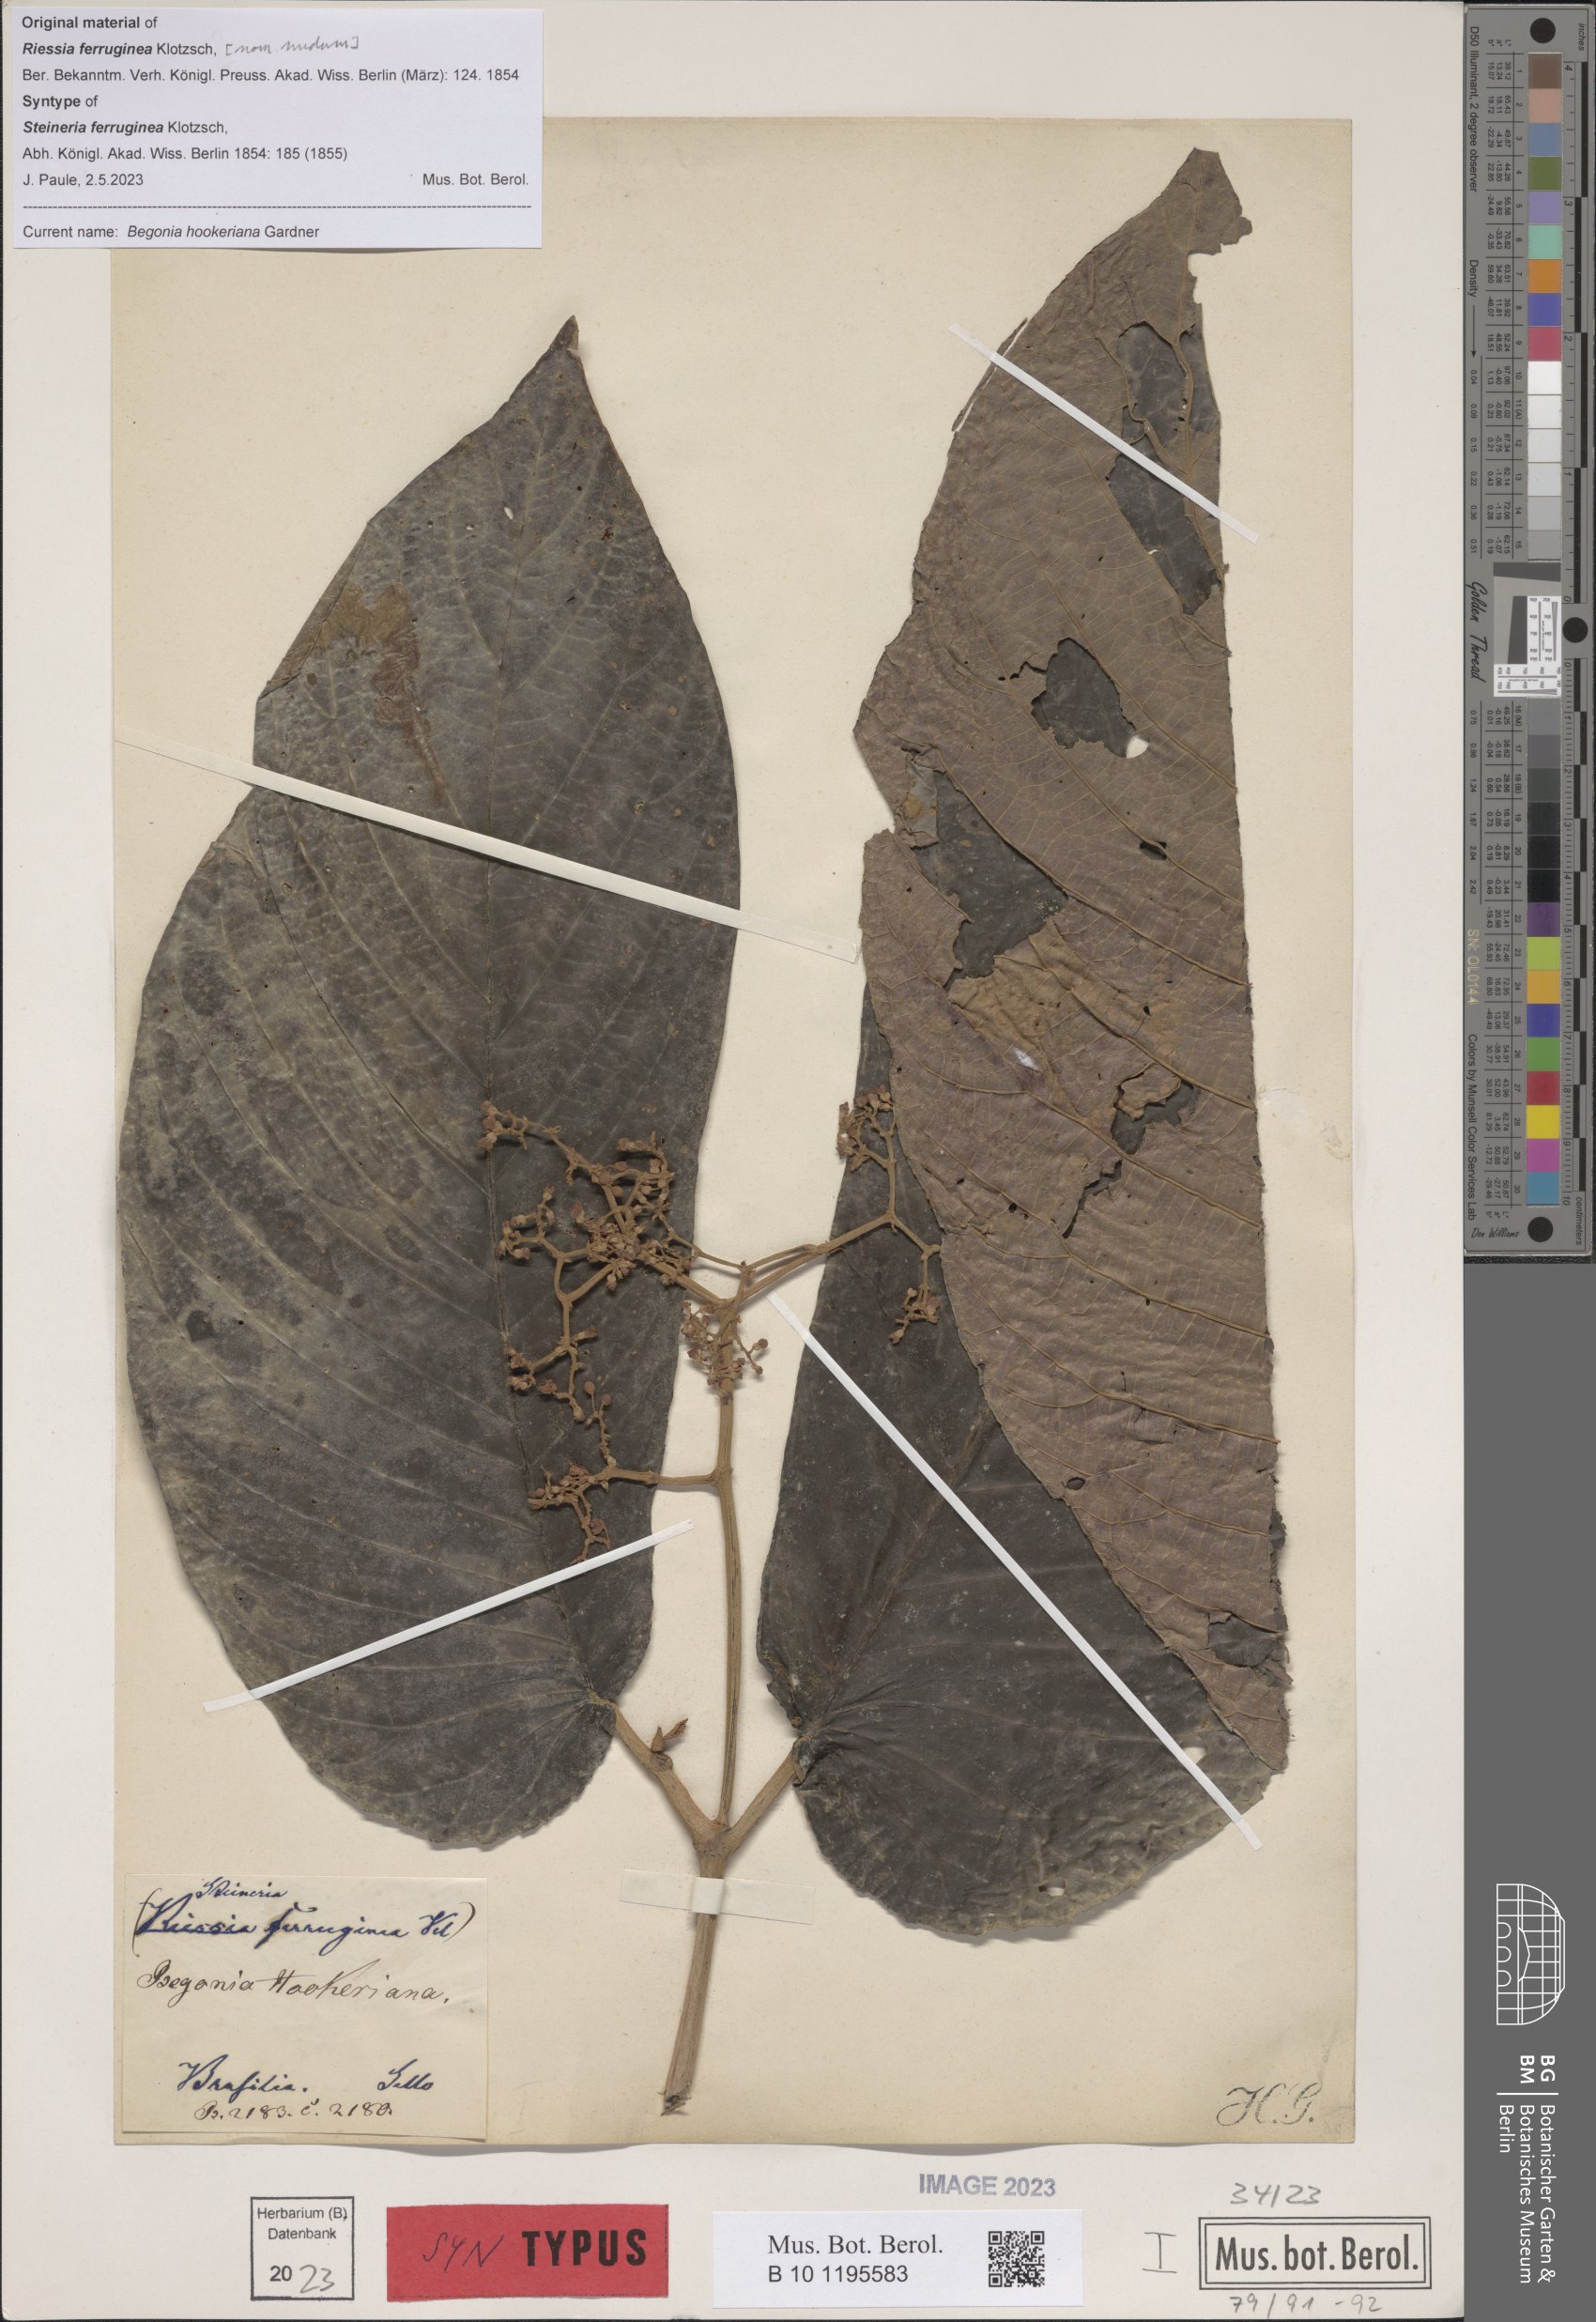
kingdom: Plantae
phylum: Tracheophyta
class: Magnoliopsida
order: Cucurbitales
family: Begoniaceae
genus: Begonia
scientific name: Begonia hookeriana
